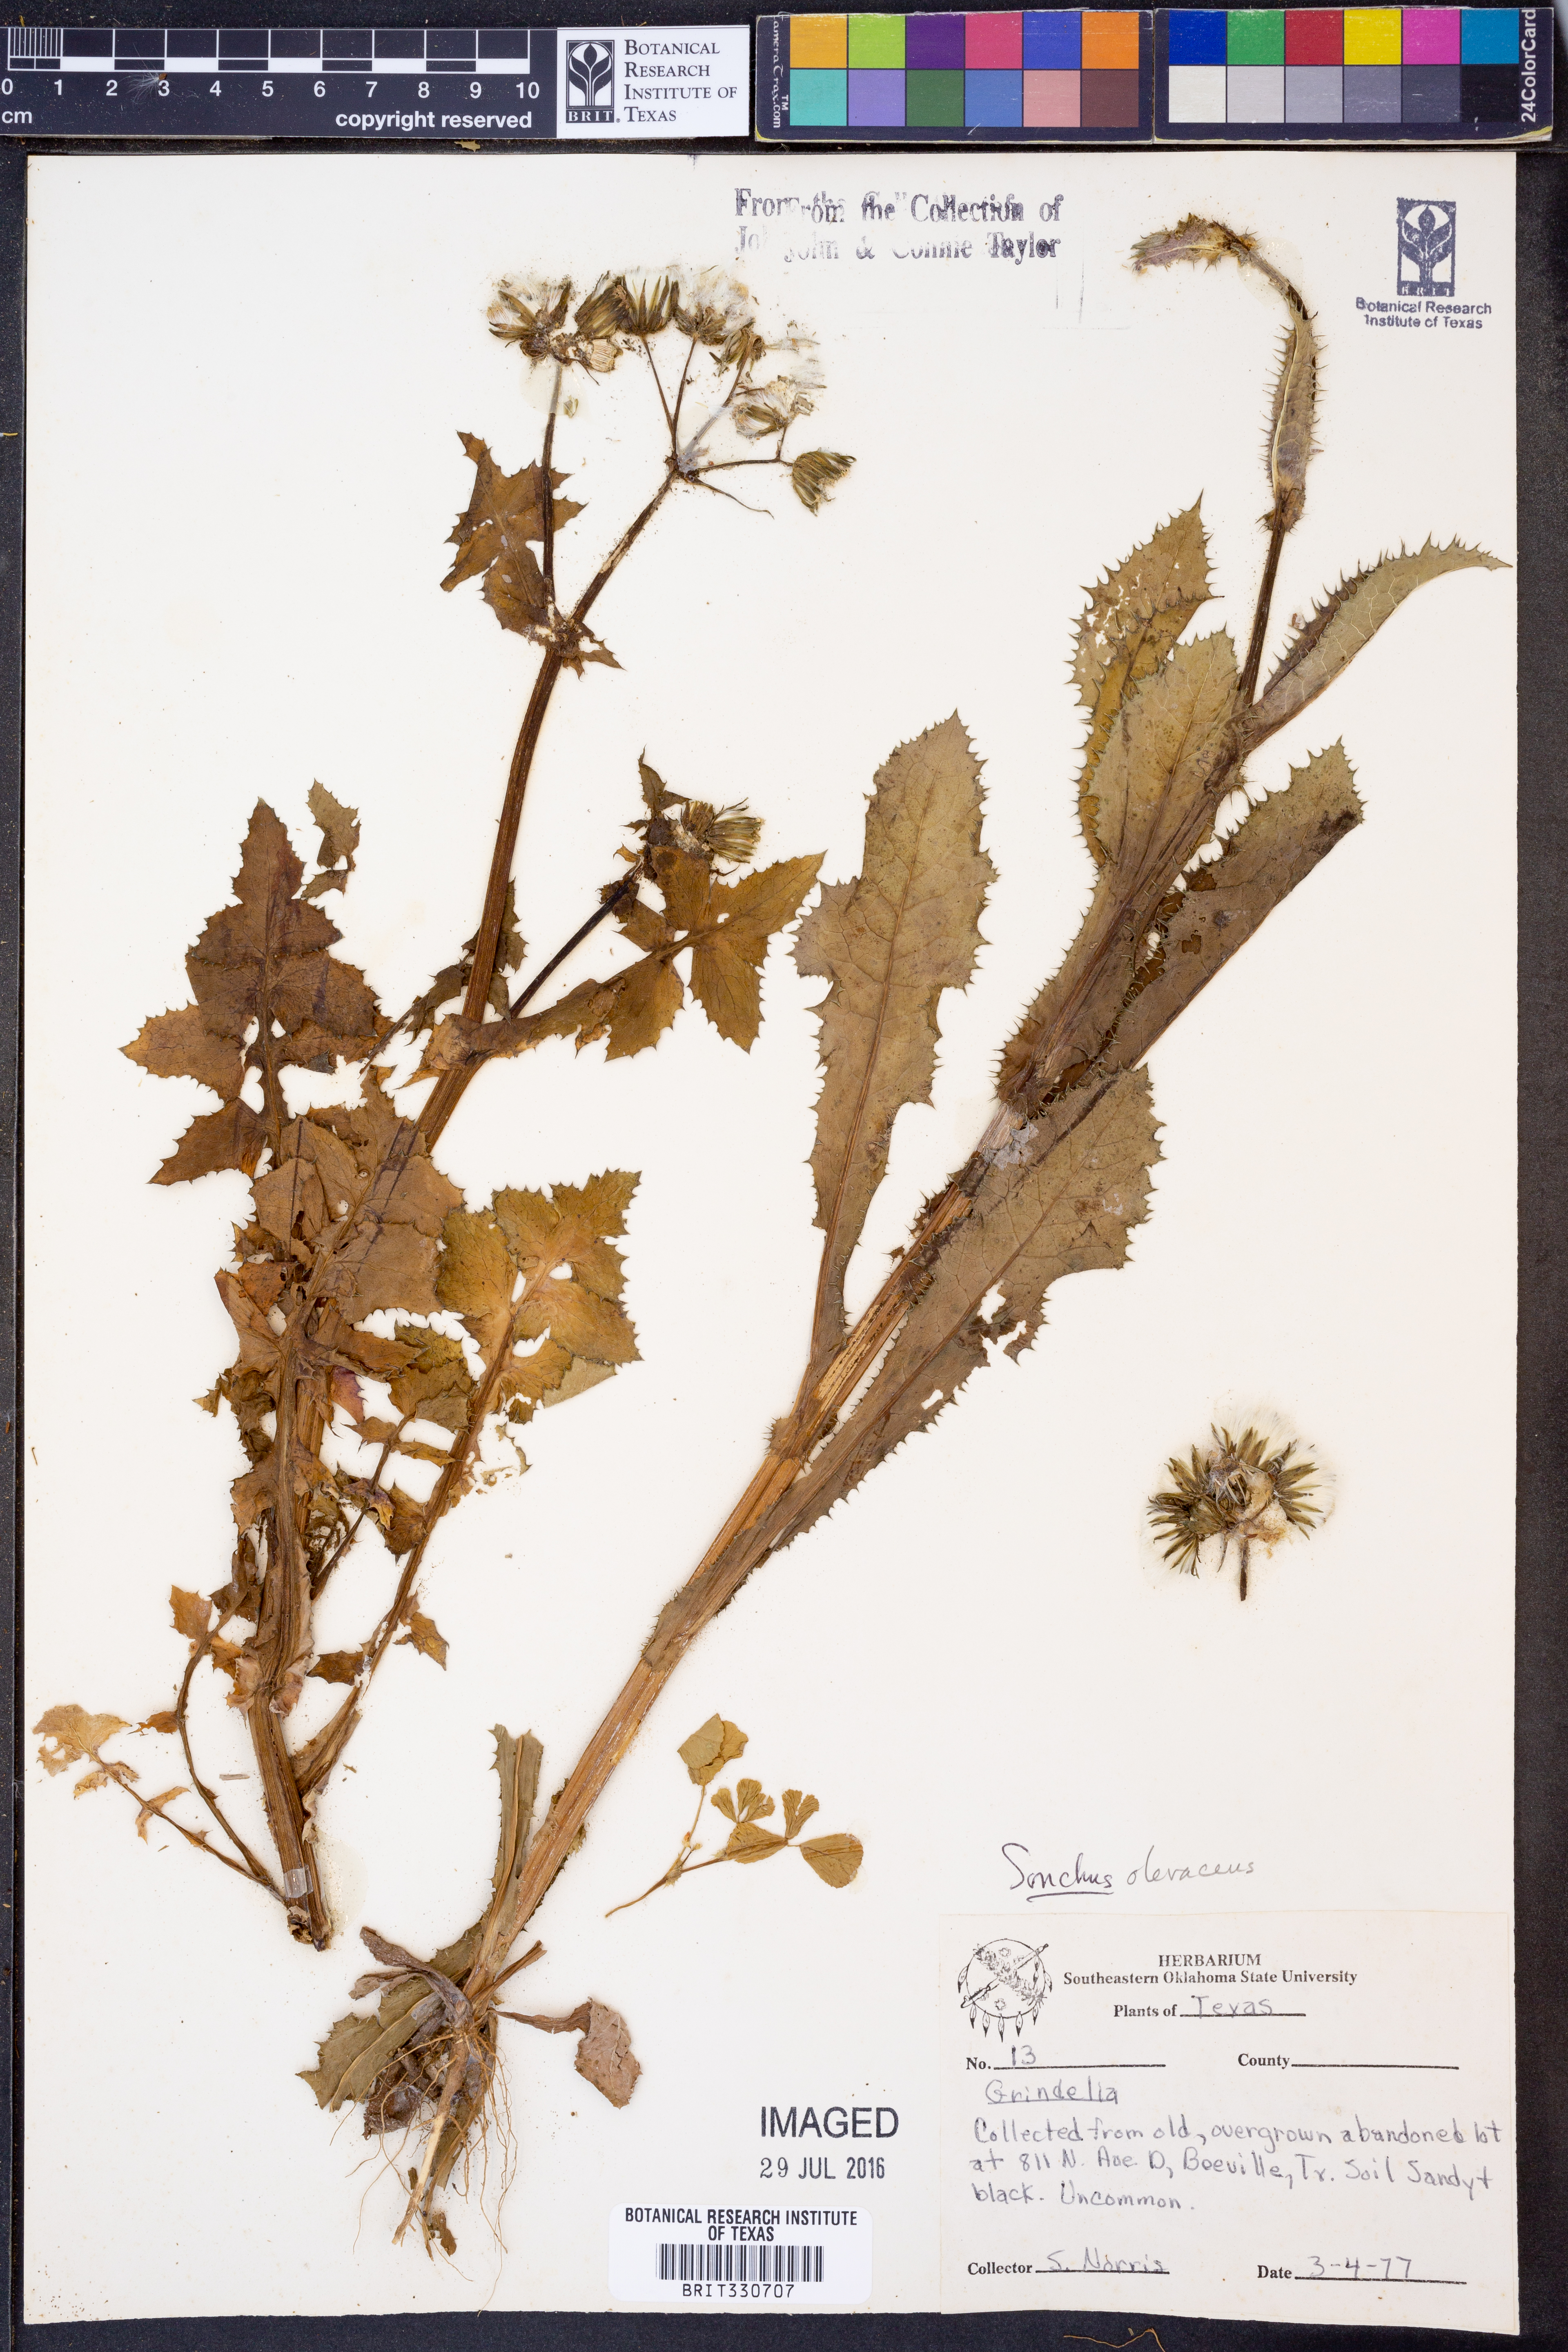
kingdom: Plantae
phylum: Tracheophyta
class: Magnoliopsida
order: Asterales
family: Asteraceae
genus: Sonchus
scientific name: Sonchus oleraceus
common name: Common sowthistle
